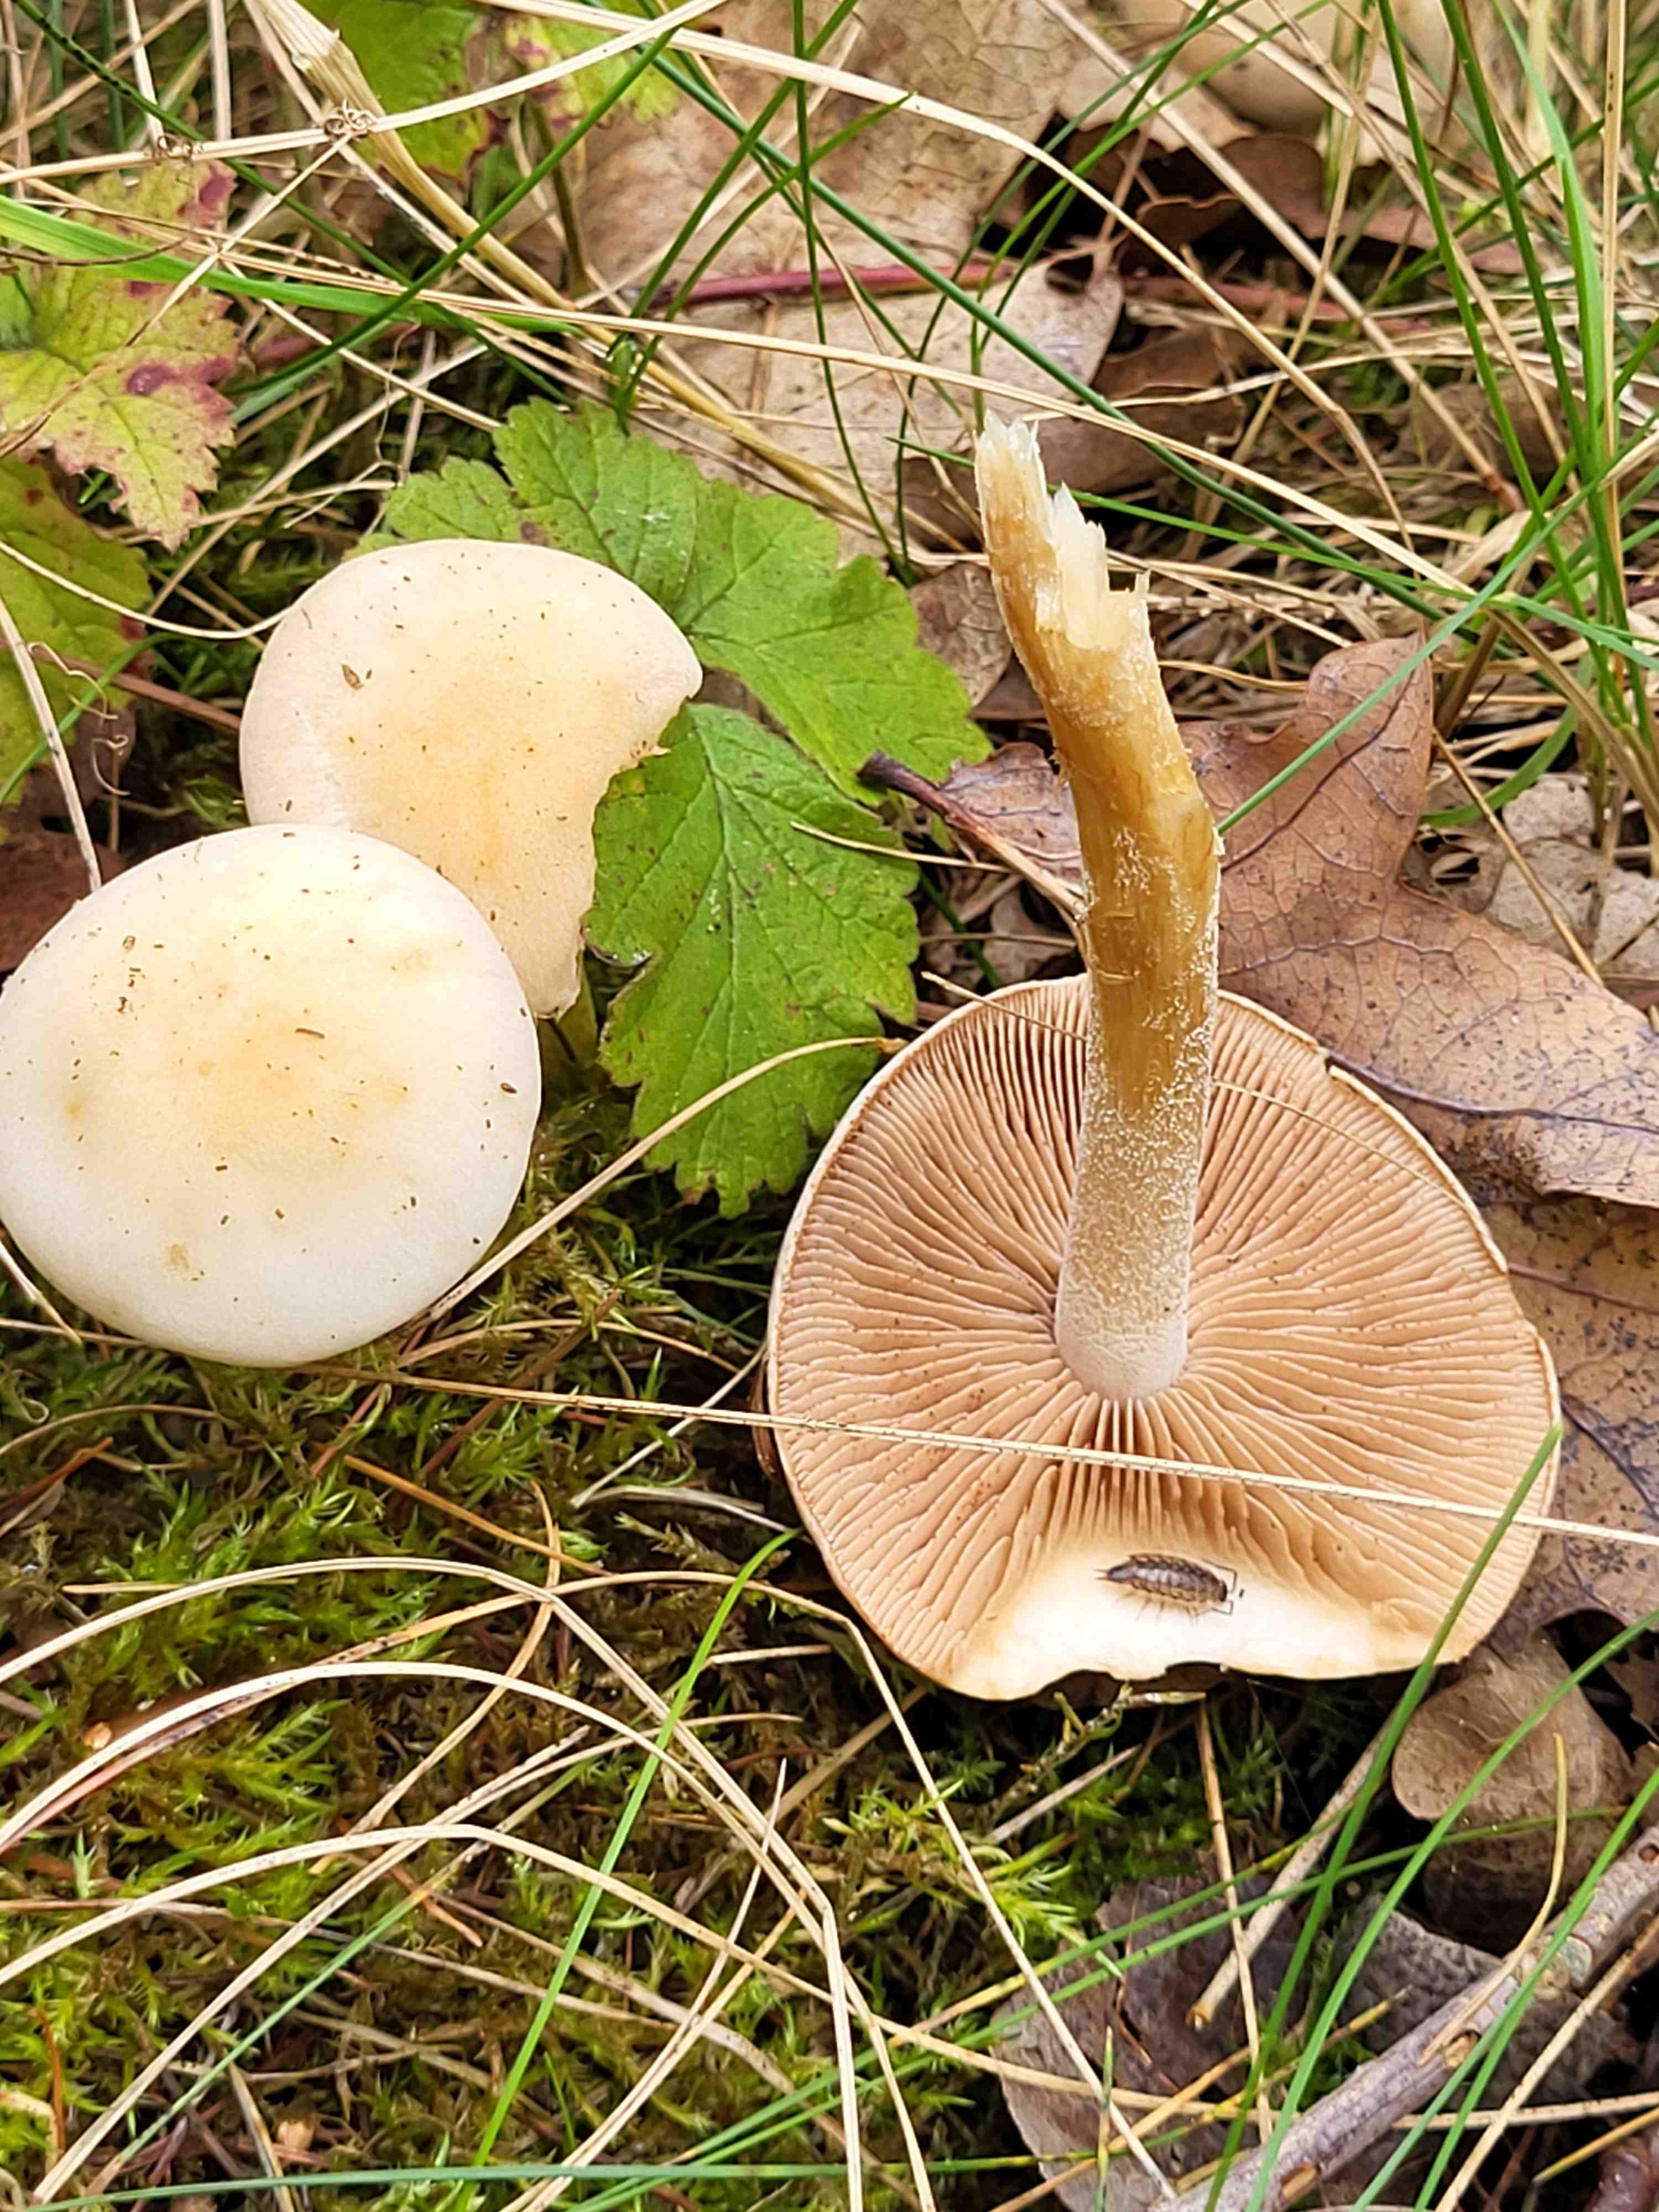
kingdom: Fungi
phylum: Basidiomycota
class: Agaricomycetes
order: Agaricales
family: Hymenogastraceae
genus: Hebeloma
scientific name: Hebeloma
